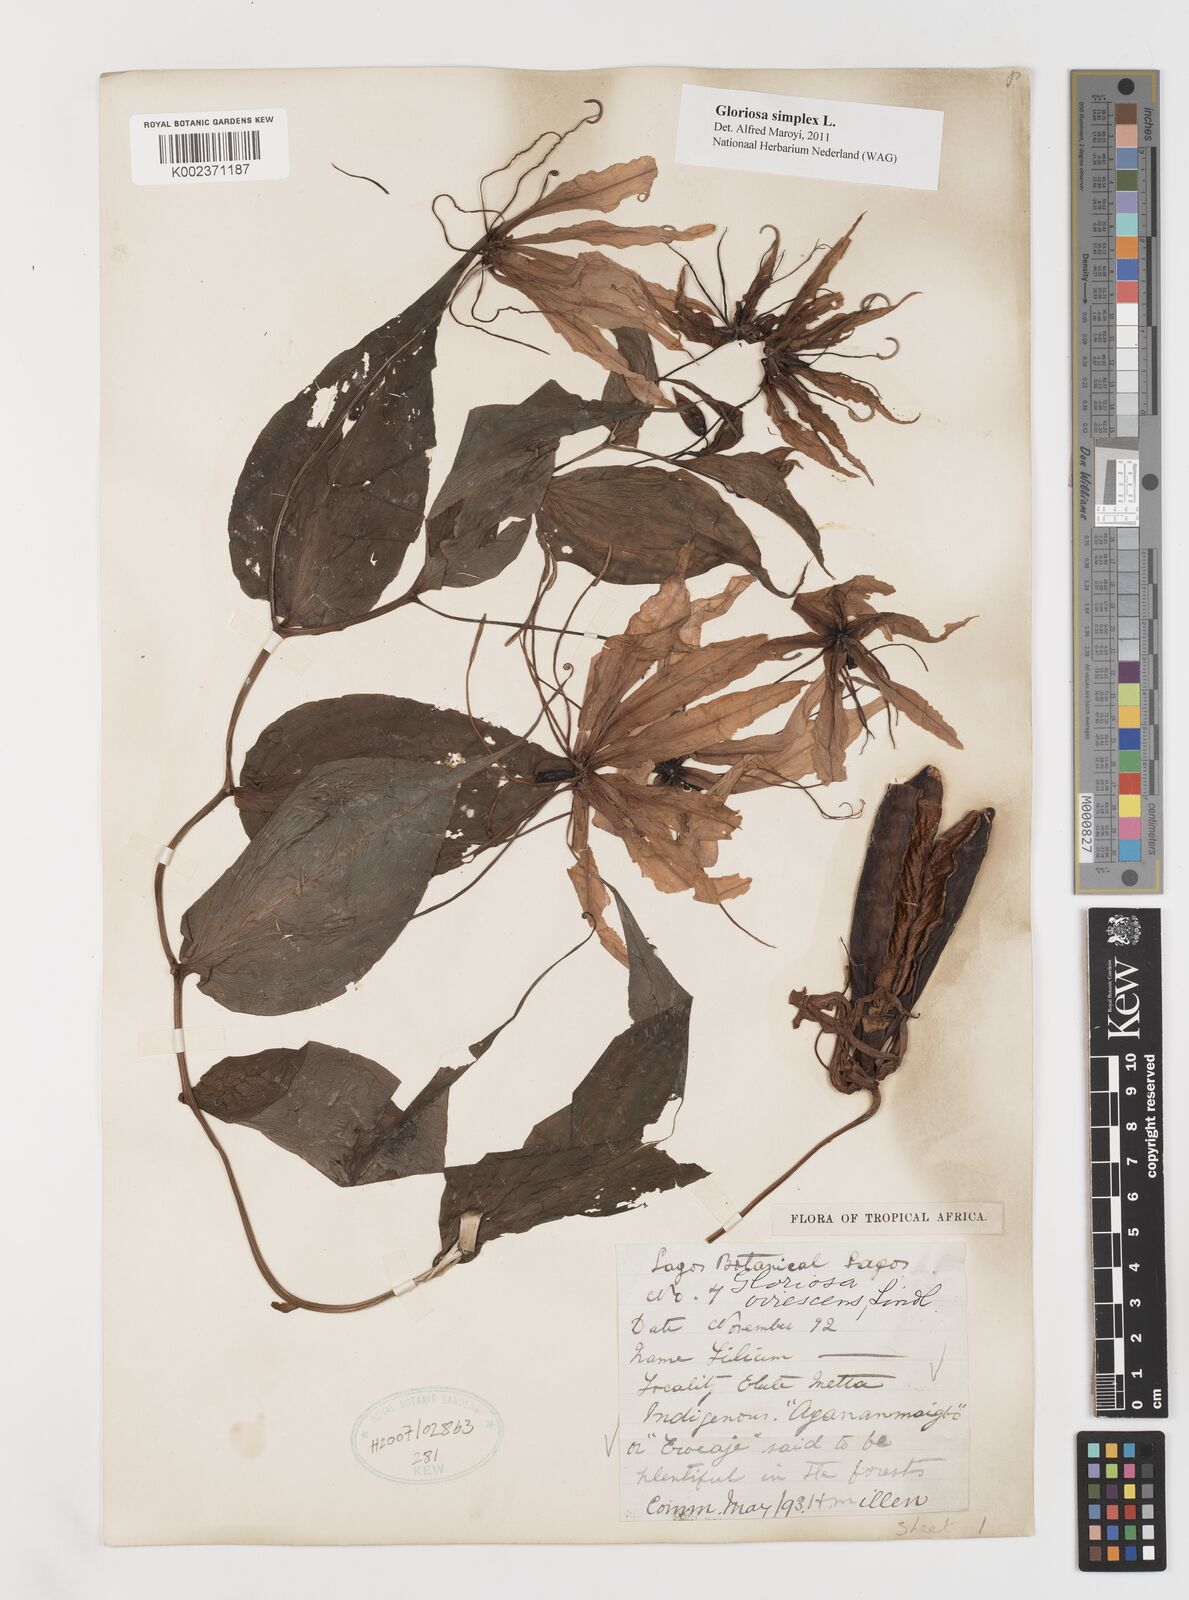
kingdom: Plantae
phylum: Tracheophyta
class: Liliopsida
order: Liliales
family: Colchicaceae
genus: Gloriosa
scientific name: Gloriosa simplex
